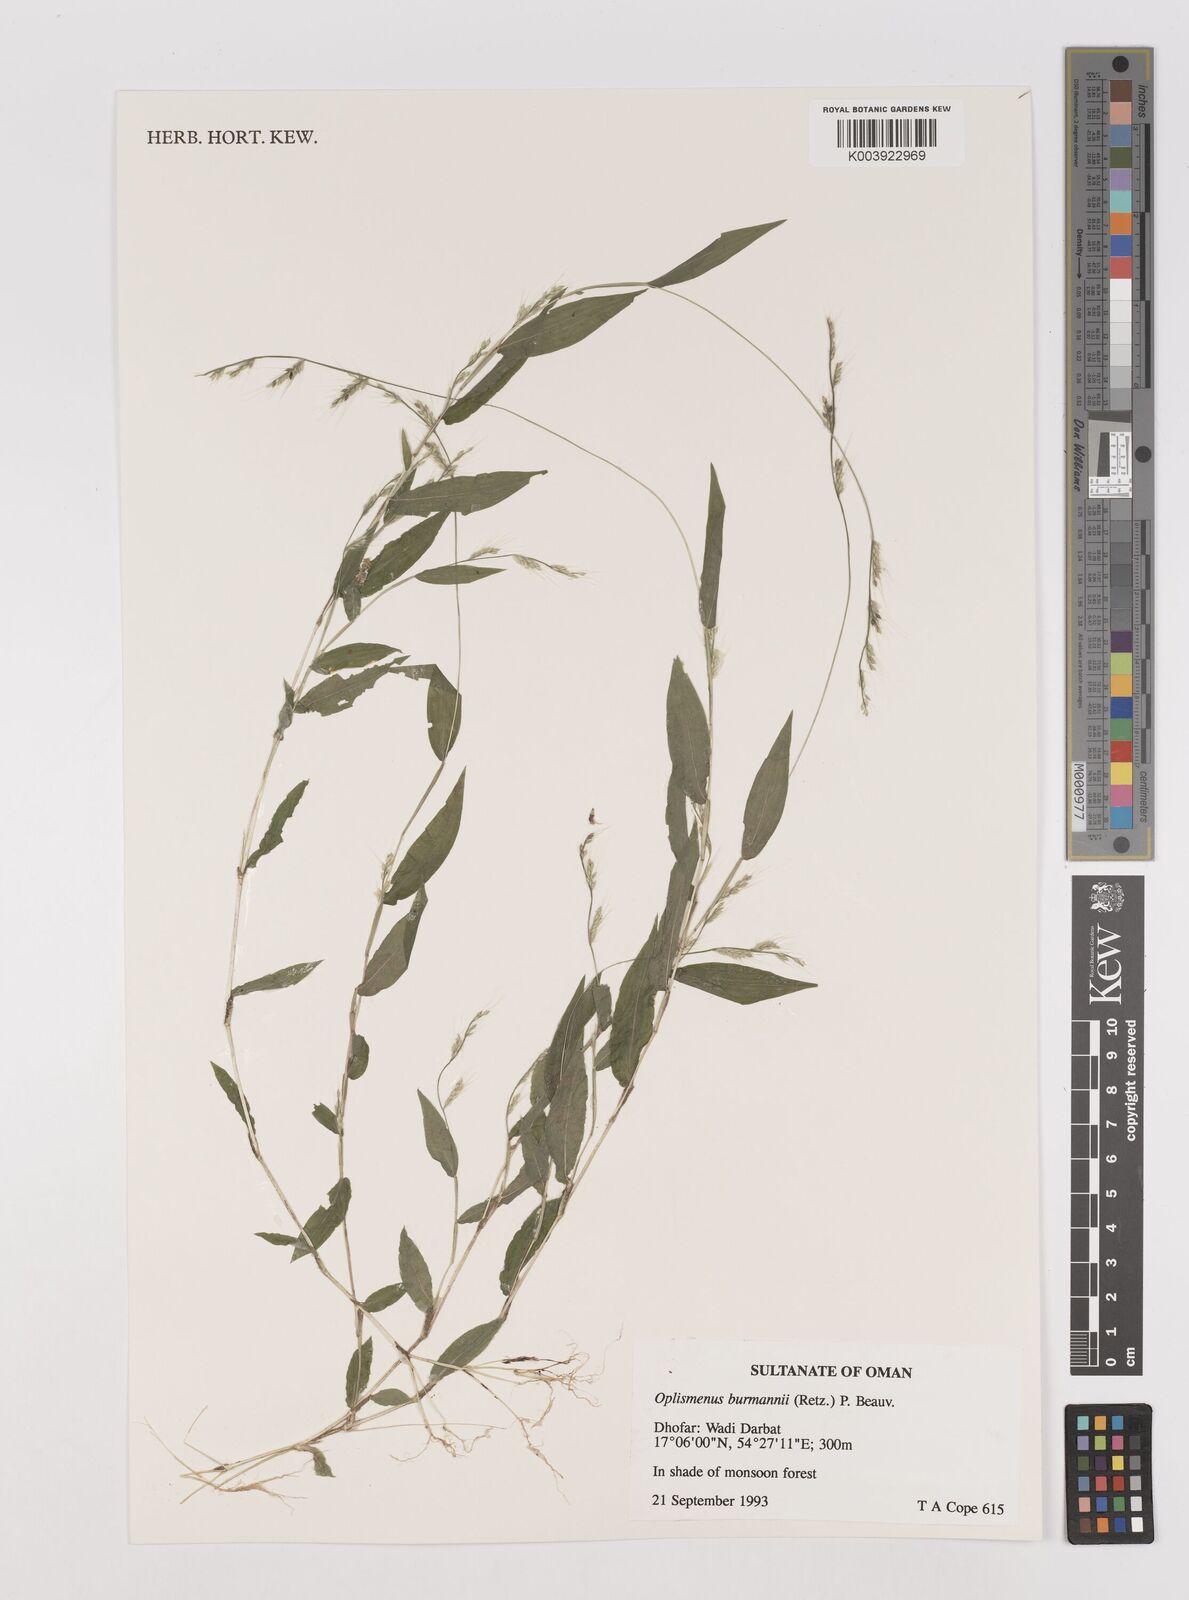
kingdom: Plantae
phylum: Tracheophyta
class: Liliopsida
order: Poales
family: Poaceae
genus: Oplismenus
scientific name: Oplismenus burmanni
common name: Burmann's basketgrass
